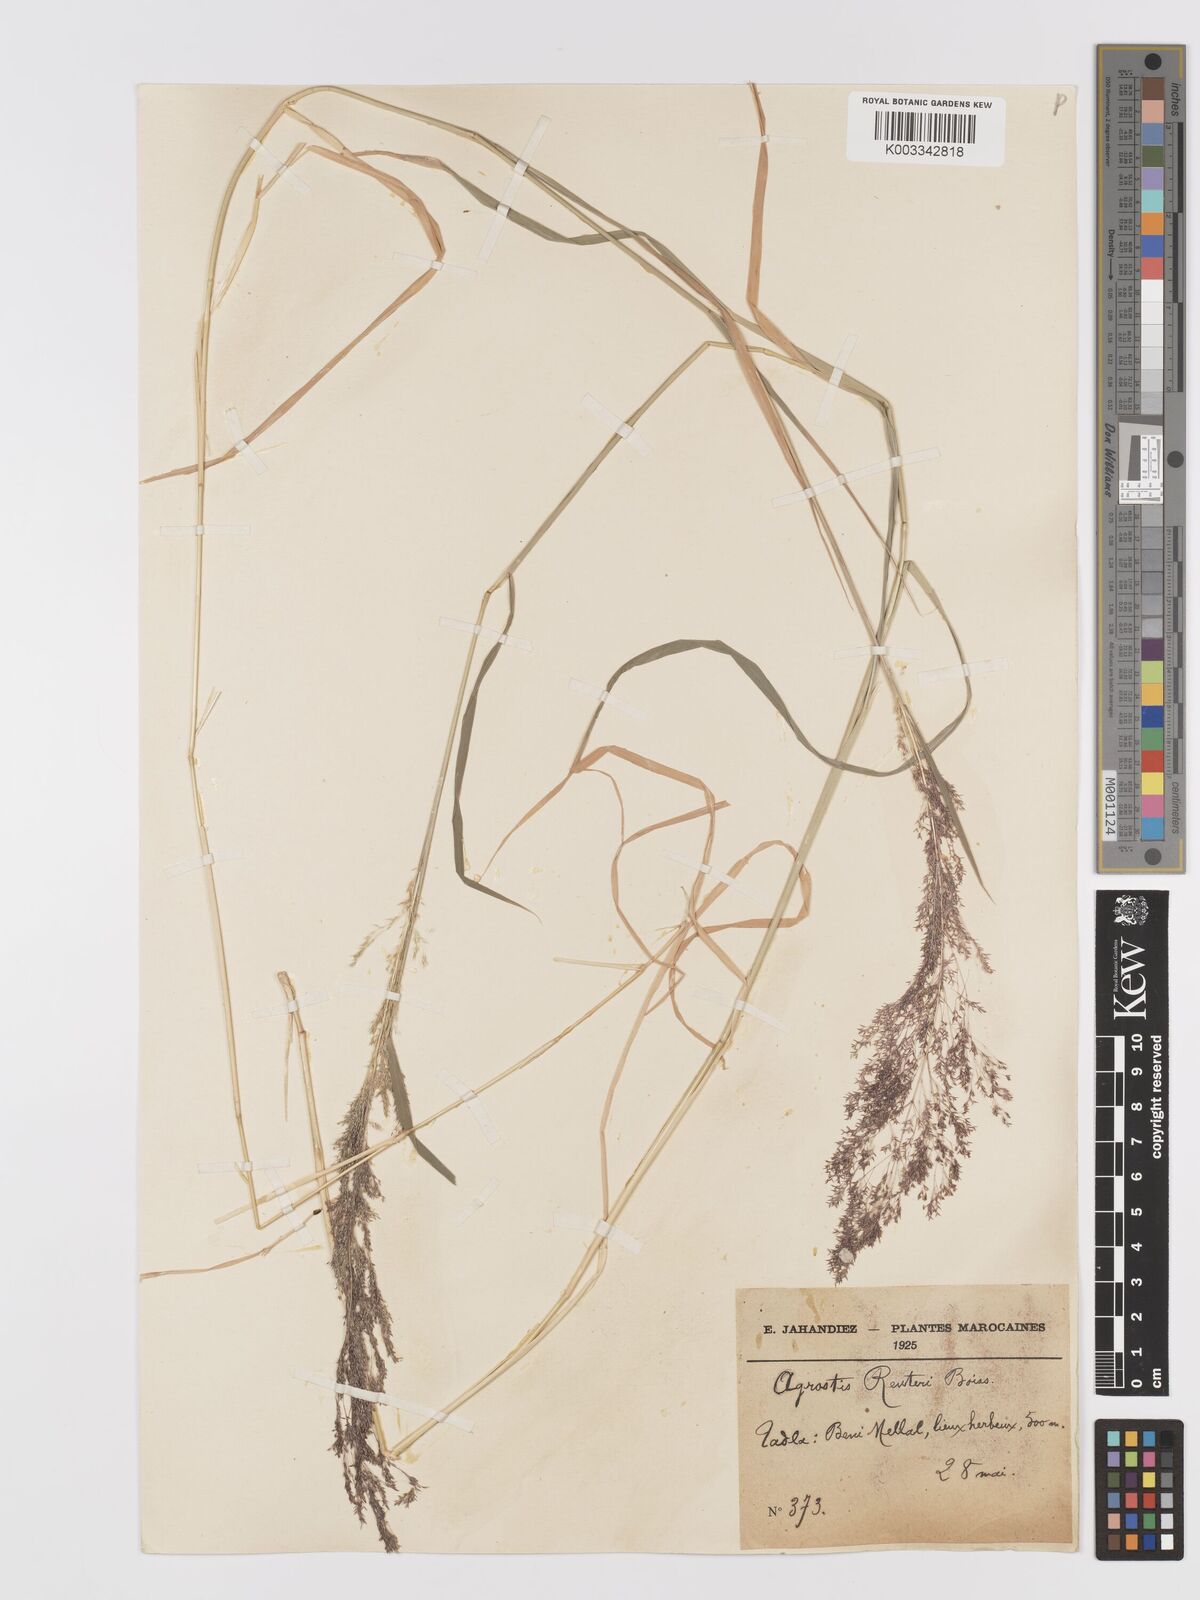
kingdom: Plantae
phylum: Tracheophyta
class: Liliopsida
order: Poales
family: Poaceae
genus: Agrostis
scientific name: Agrostis reuteri
